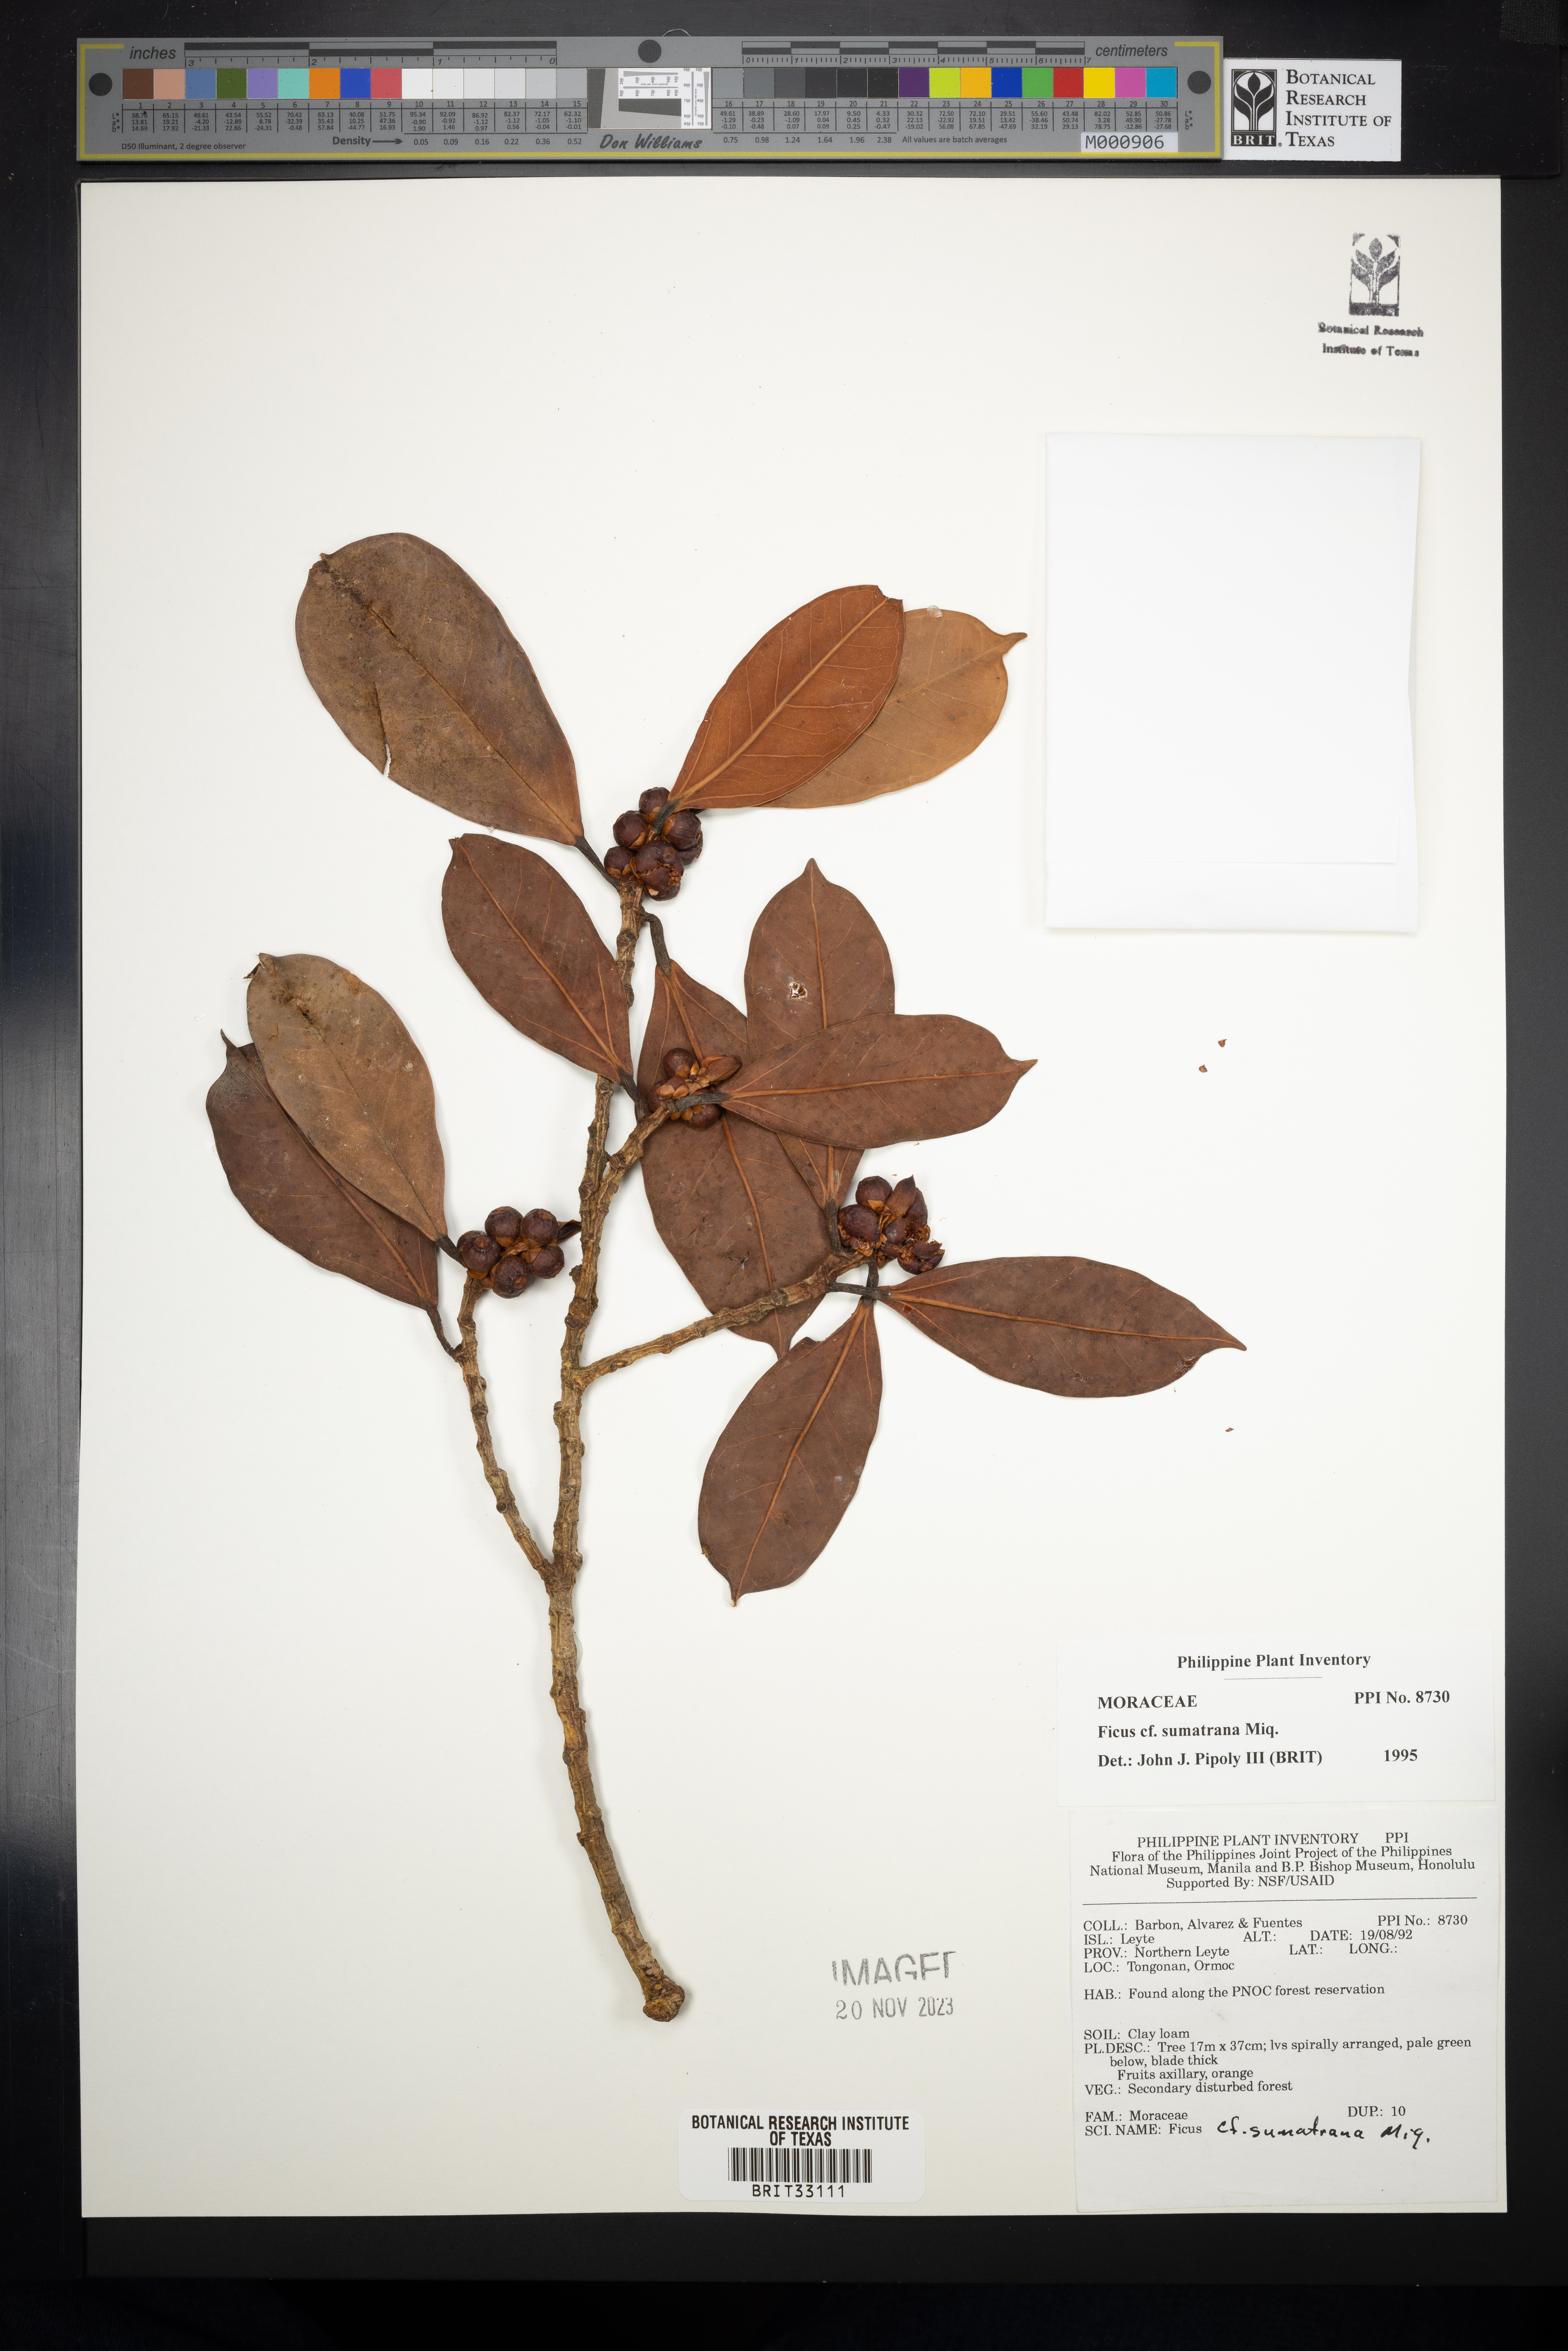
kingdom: Plantae
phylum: Tracheophyta
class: Magnoliopsida
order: Rosales
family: Moraceae
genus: Ficus
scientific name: Ficus sumatrana
